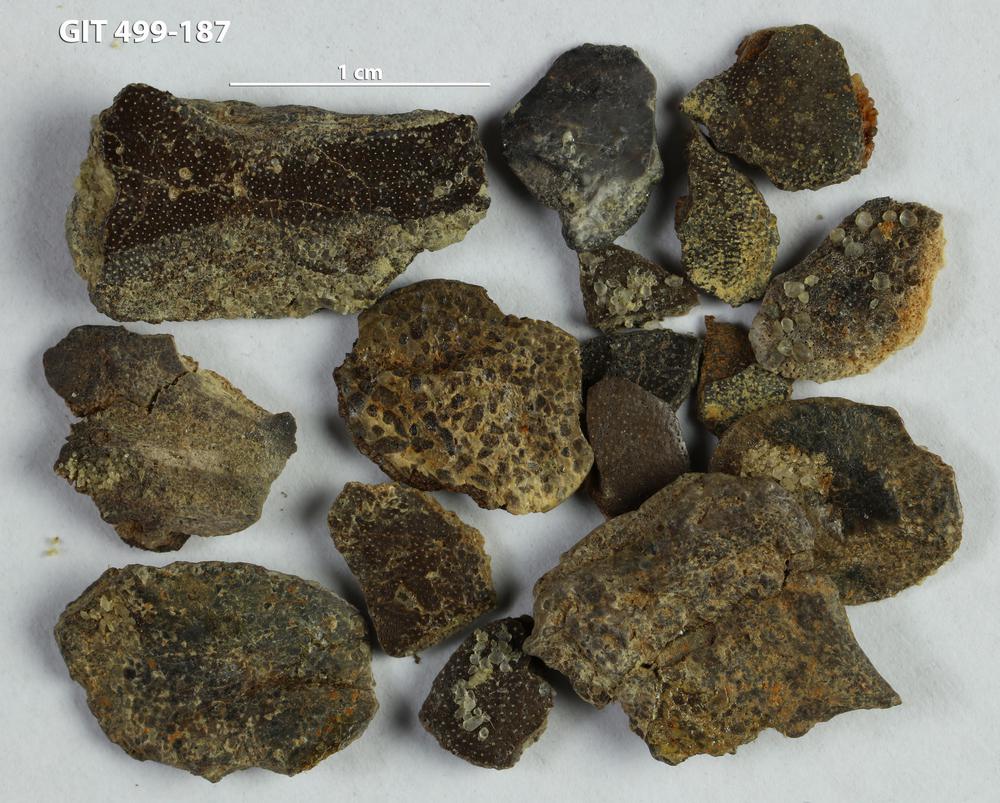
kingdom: Animalia
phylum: Chordata
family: Porolepididae
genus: Porolepis
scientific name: Porolepis
